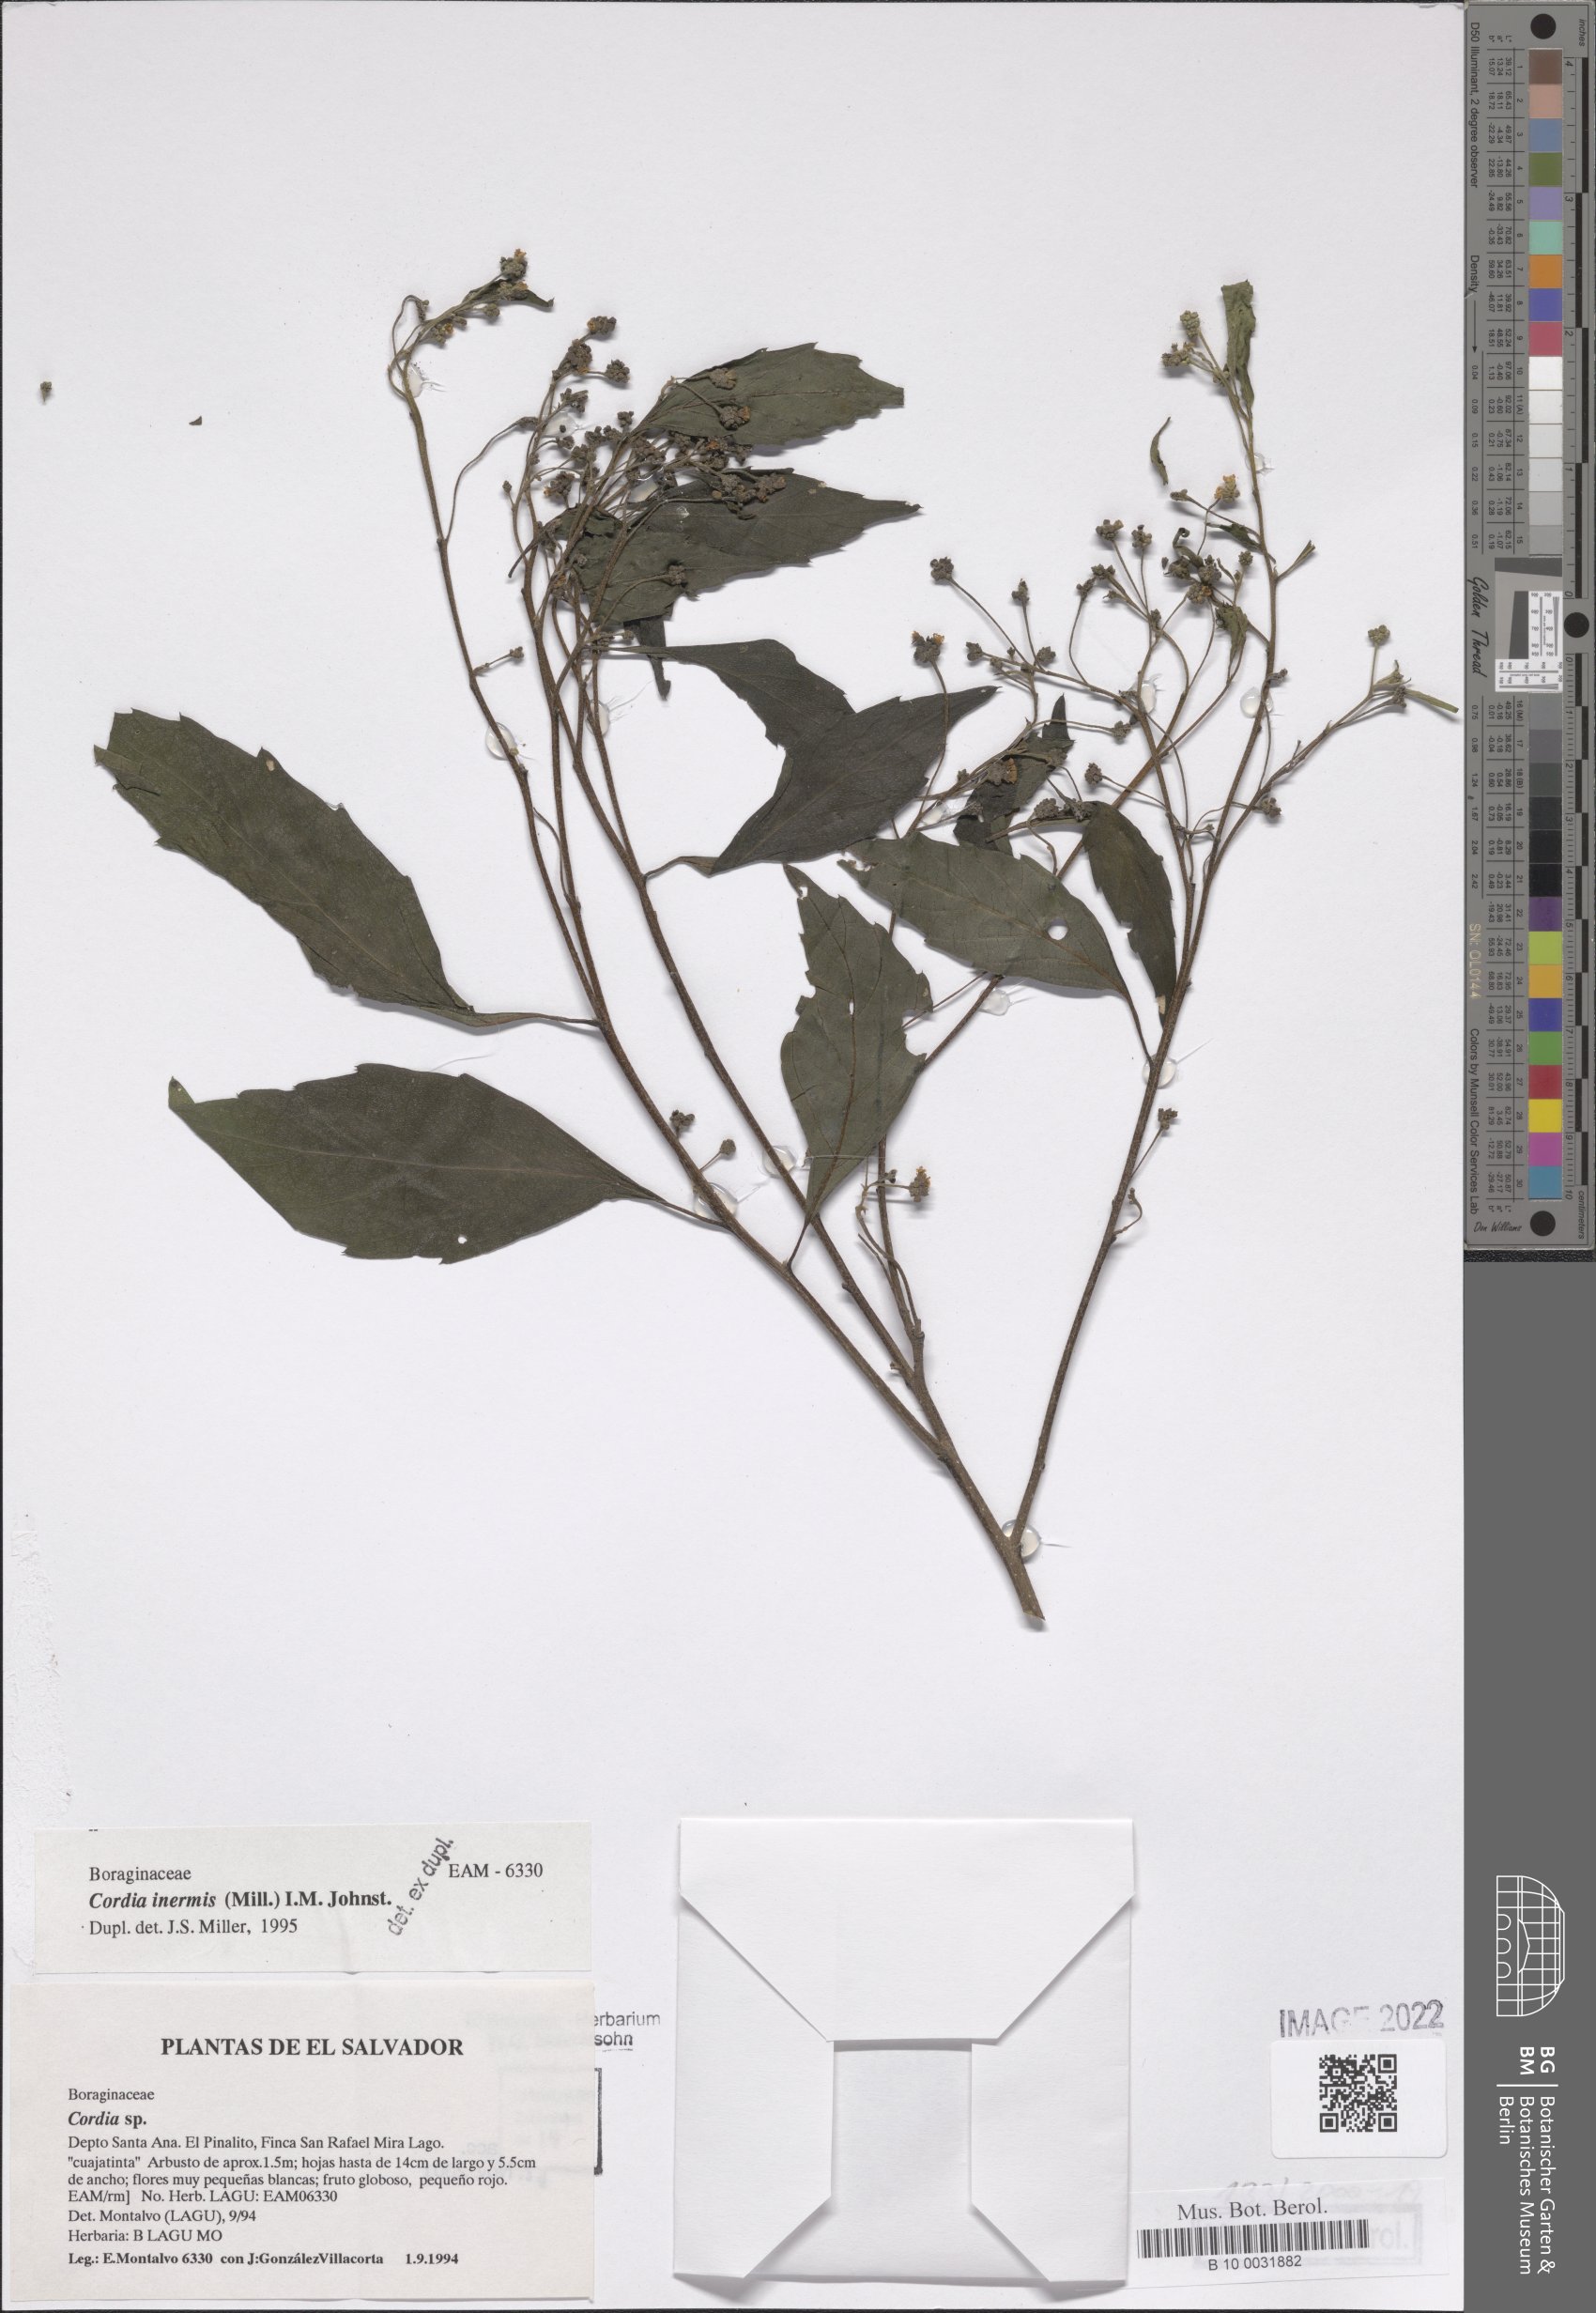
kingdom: Plantae
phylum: Tracheophyta
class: Magnoliopsida
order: Boraginales
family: Cordiaceae
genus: Varronia
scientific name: Varronia inermis
